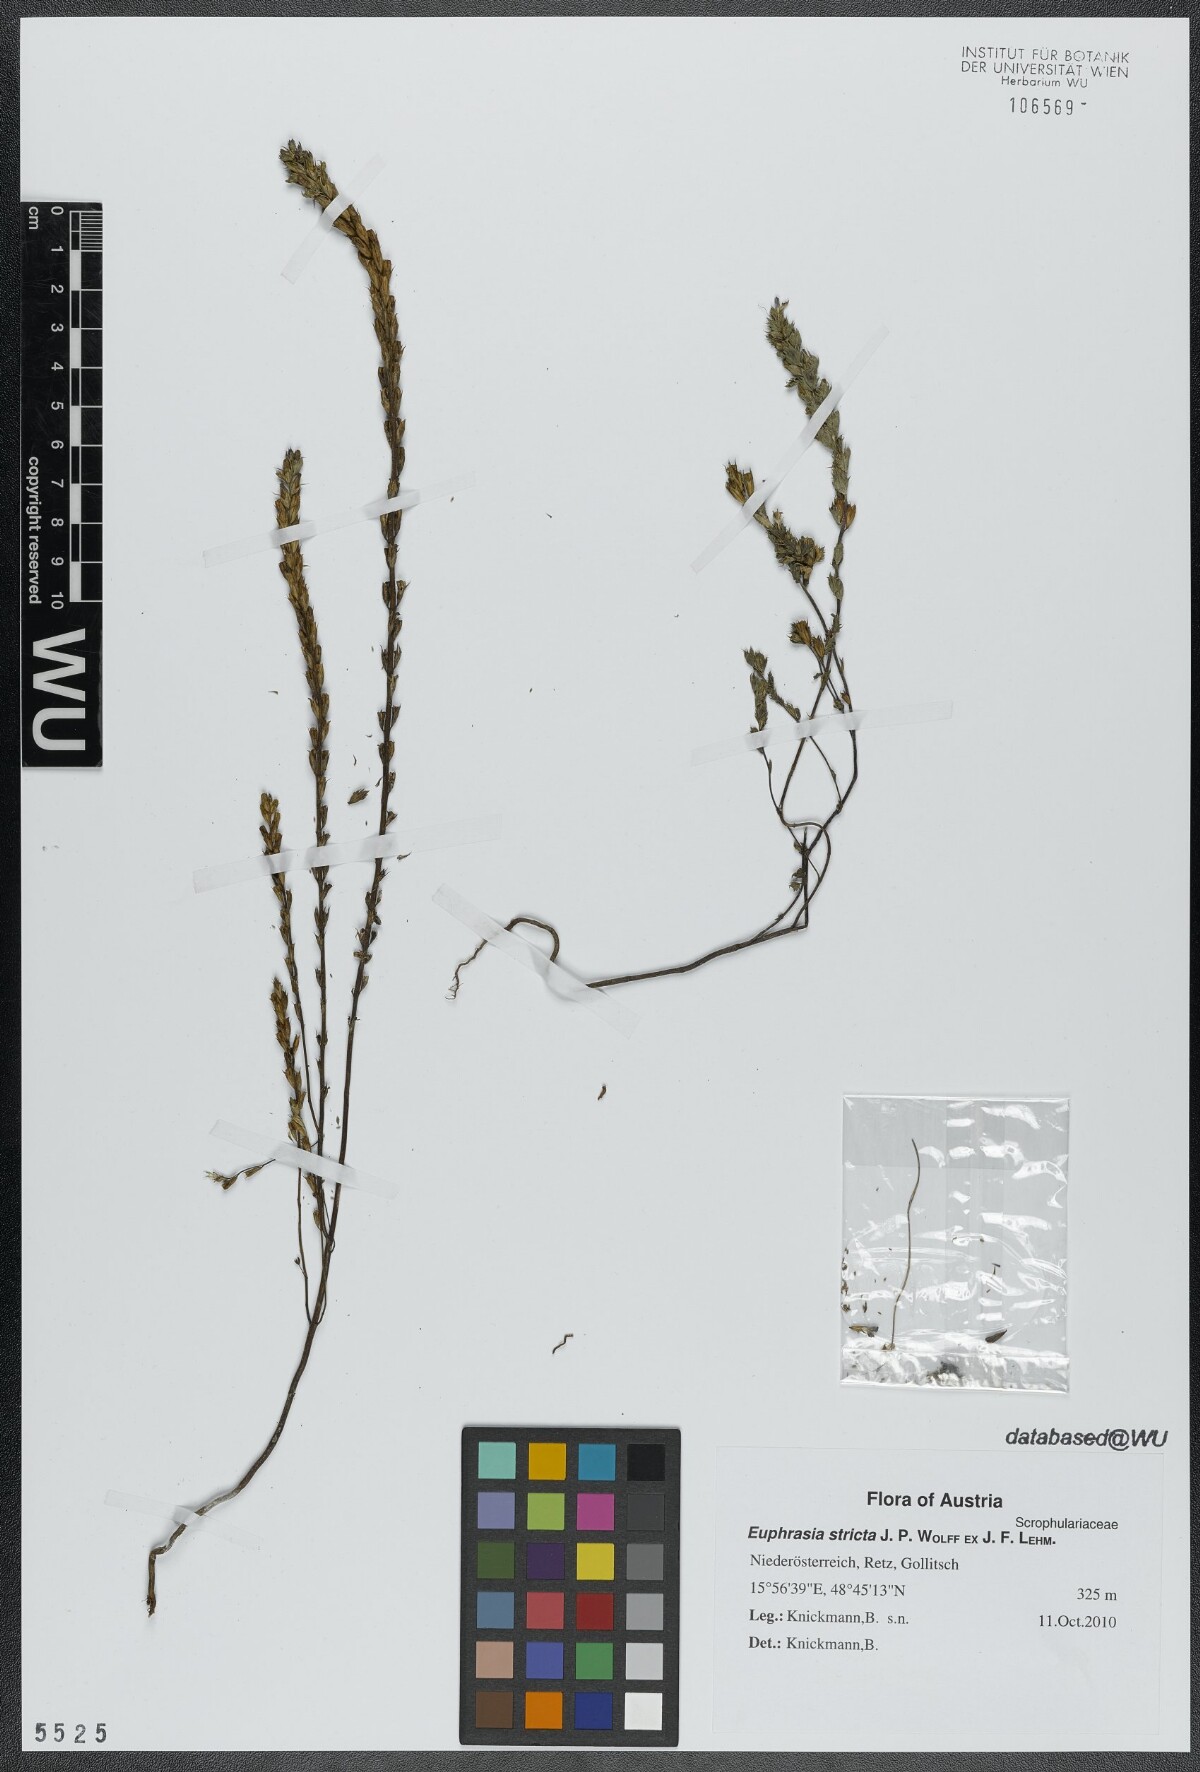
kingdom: Plantae
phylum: Tracheophyta
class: Magnoliopsida
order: Lamiales
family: Orobanchaceae
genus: Euphrasia
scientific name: Euphrasia stricta
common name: Drug eyebright
